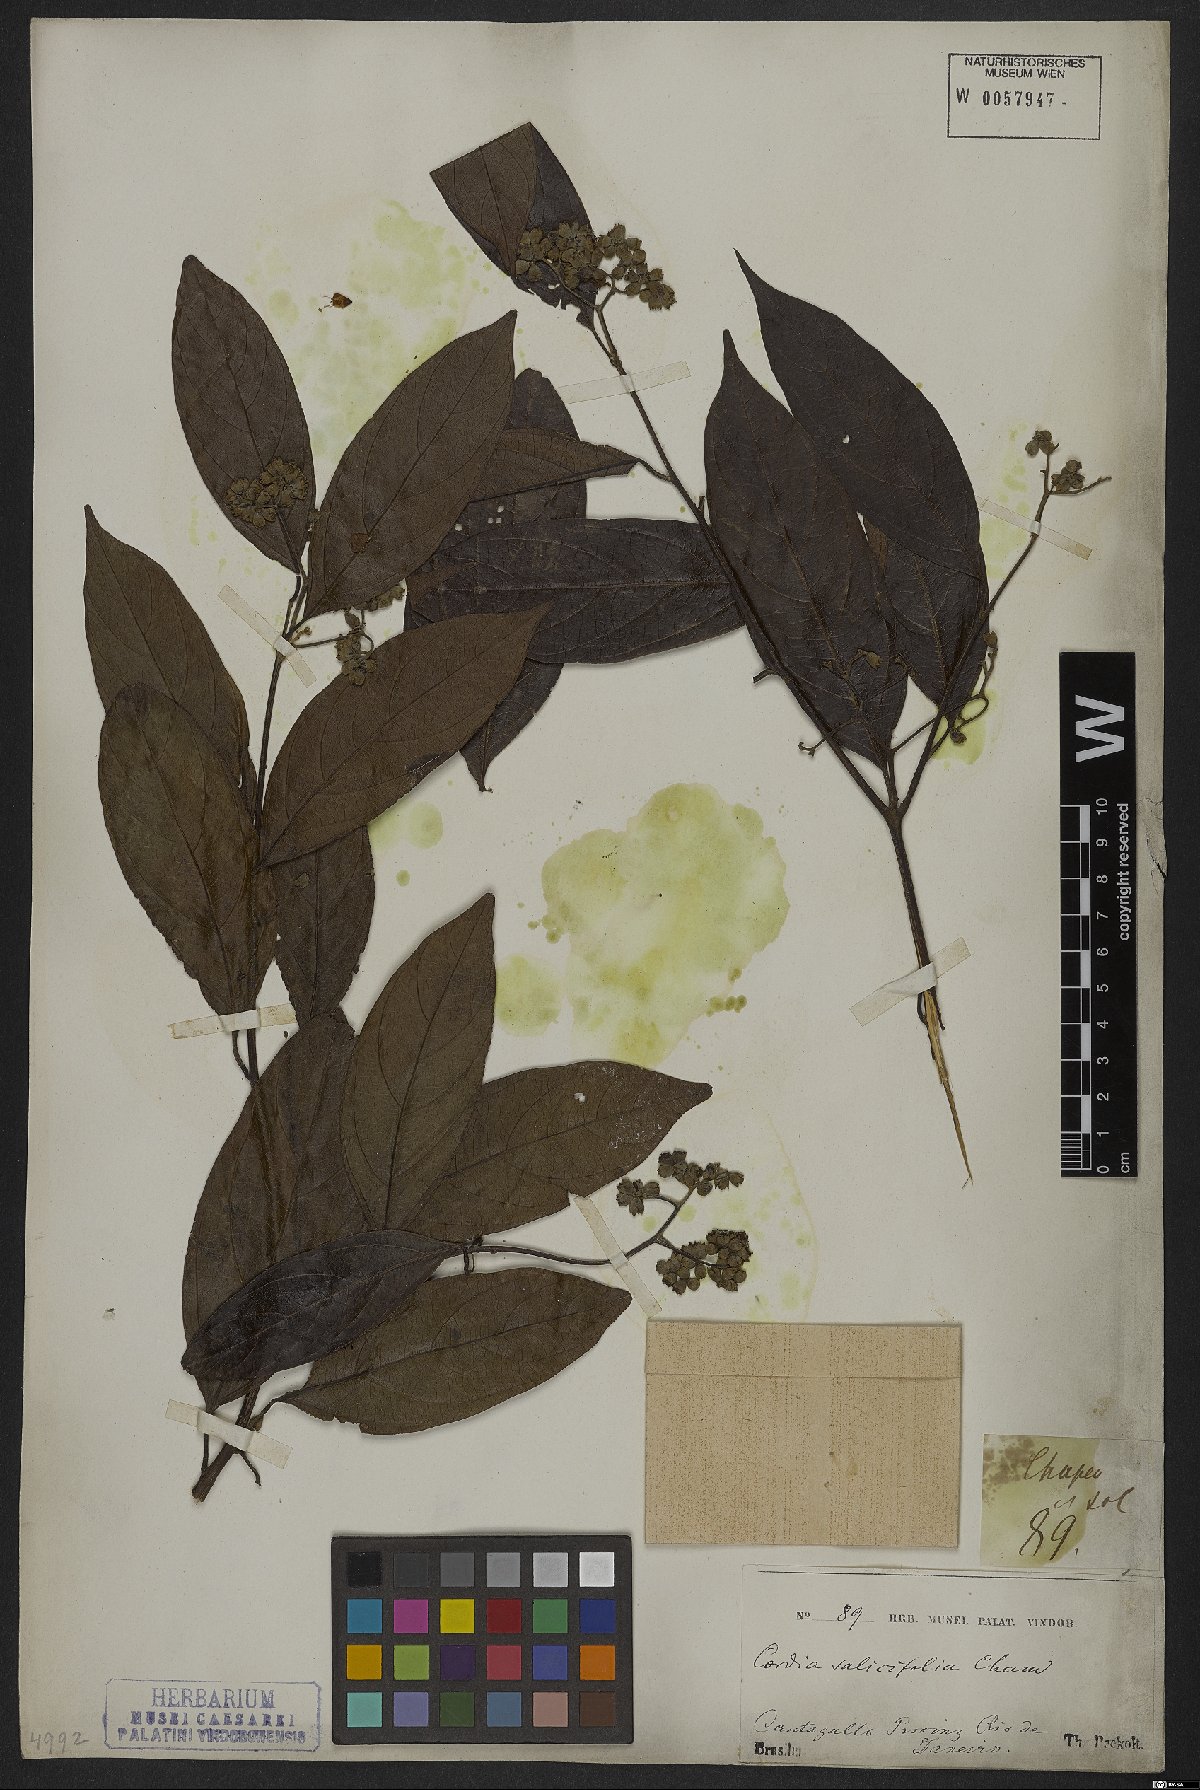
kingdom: Plantae
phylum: Tracheophyta
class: Magnoliopsida
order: Boraginales
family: Cordiaceae
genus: Cordia
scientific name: Cordia ecalyculata
